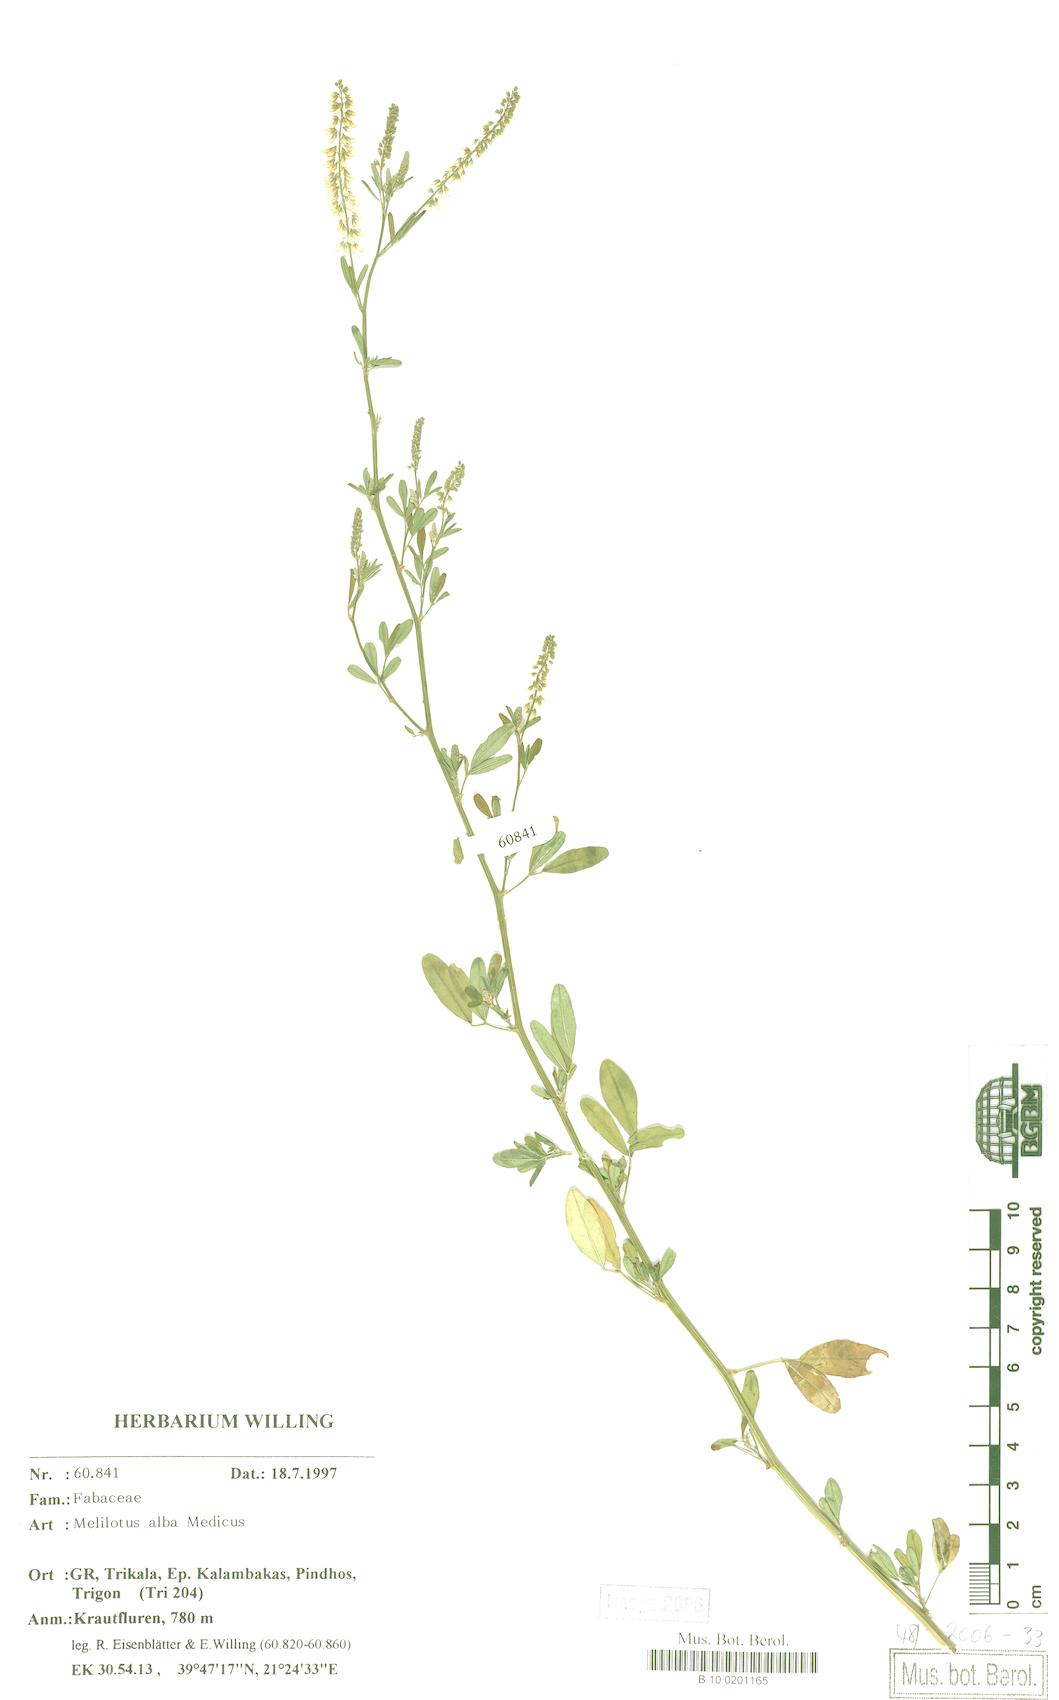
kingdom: Plantae
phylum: Tracheophyta
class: Magnoliopsida
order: Fabales
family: Fabaceae
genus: Melilotus
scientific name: Melilotus albus
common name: White melilot
